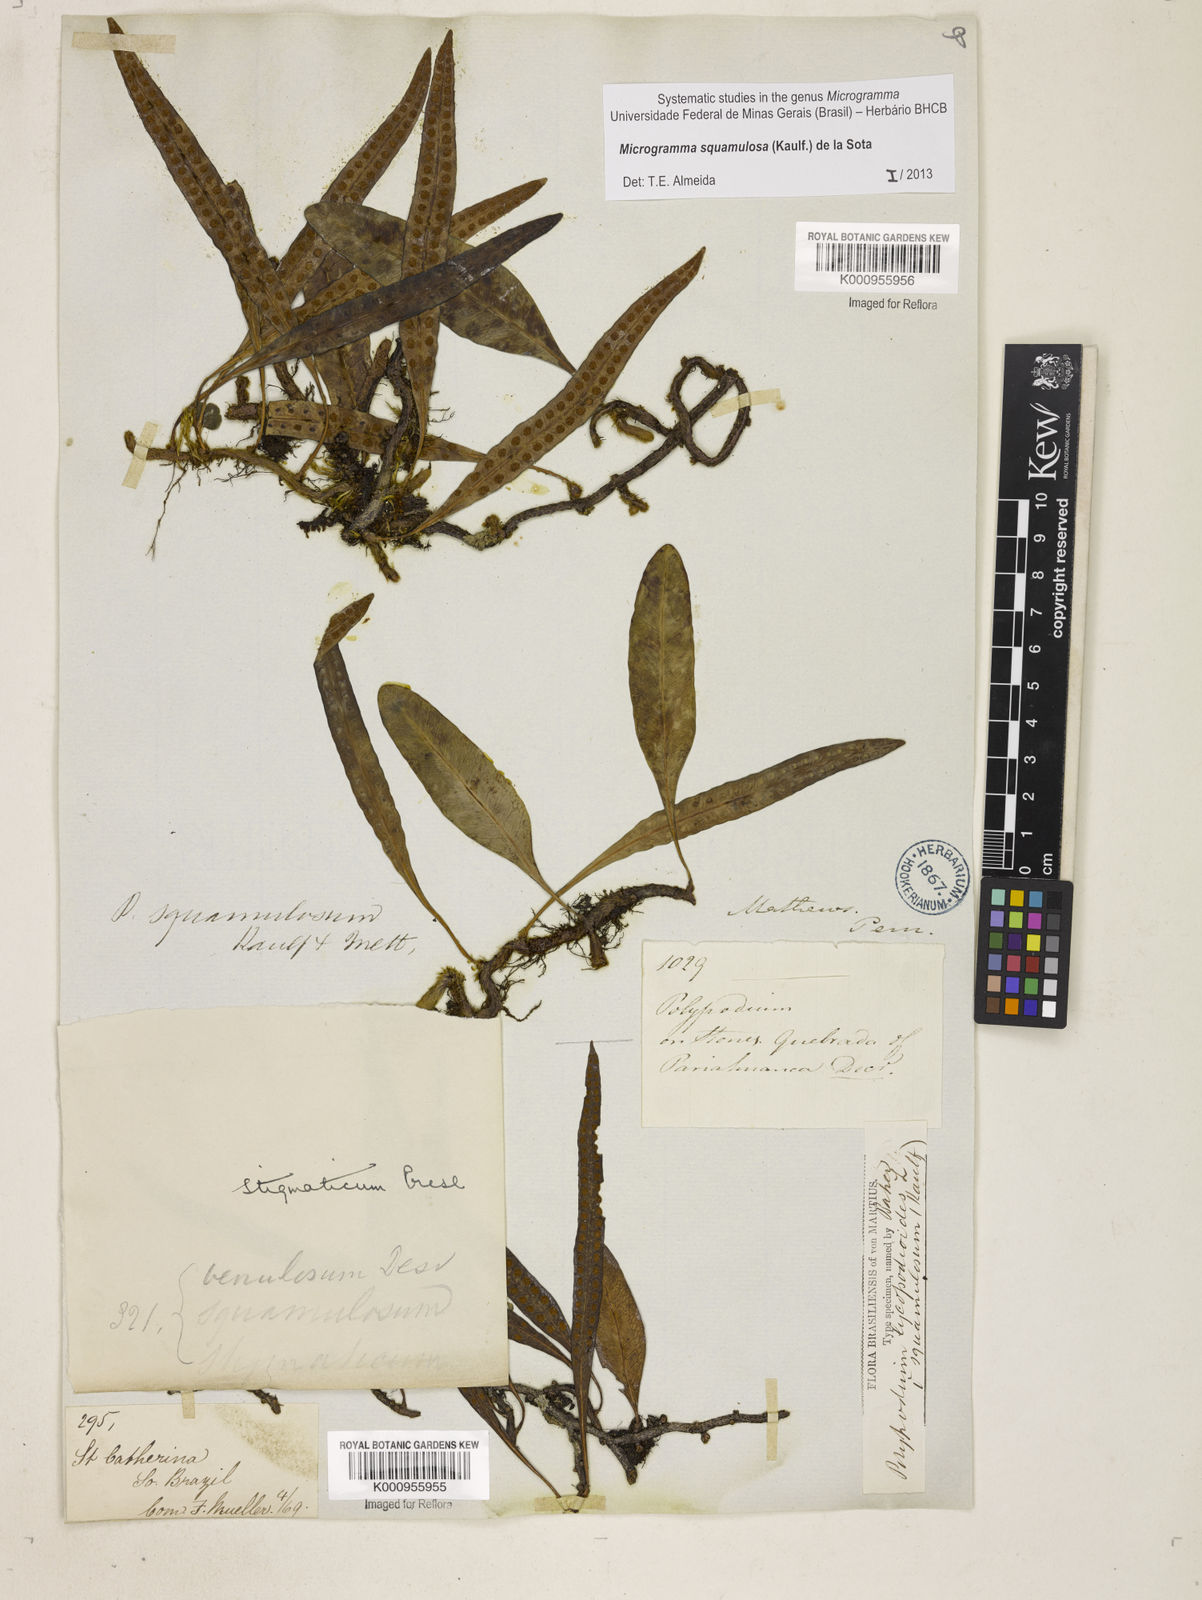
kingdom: Plantae
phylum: Tracheophyta
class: Polypodiopsida
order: Polypodiales
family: Polypodiaceae
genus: Microgramma
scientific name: Microgramma squamulosa
